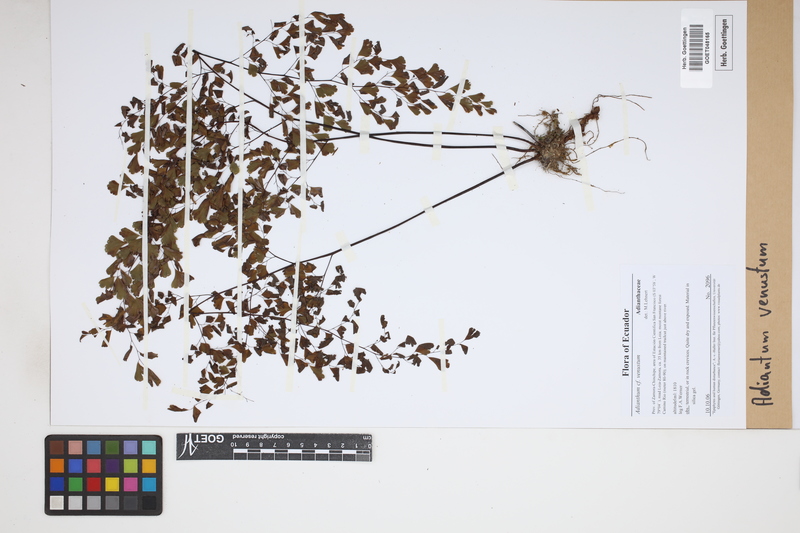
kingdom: Plantae
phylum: Tracheophyta
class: Polypodiopsida
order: Polypodiales
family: Pteridaceae
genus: Adiantum
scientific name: Adiantum venustum
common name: Evergreen maidenhair
